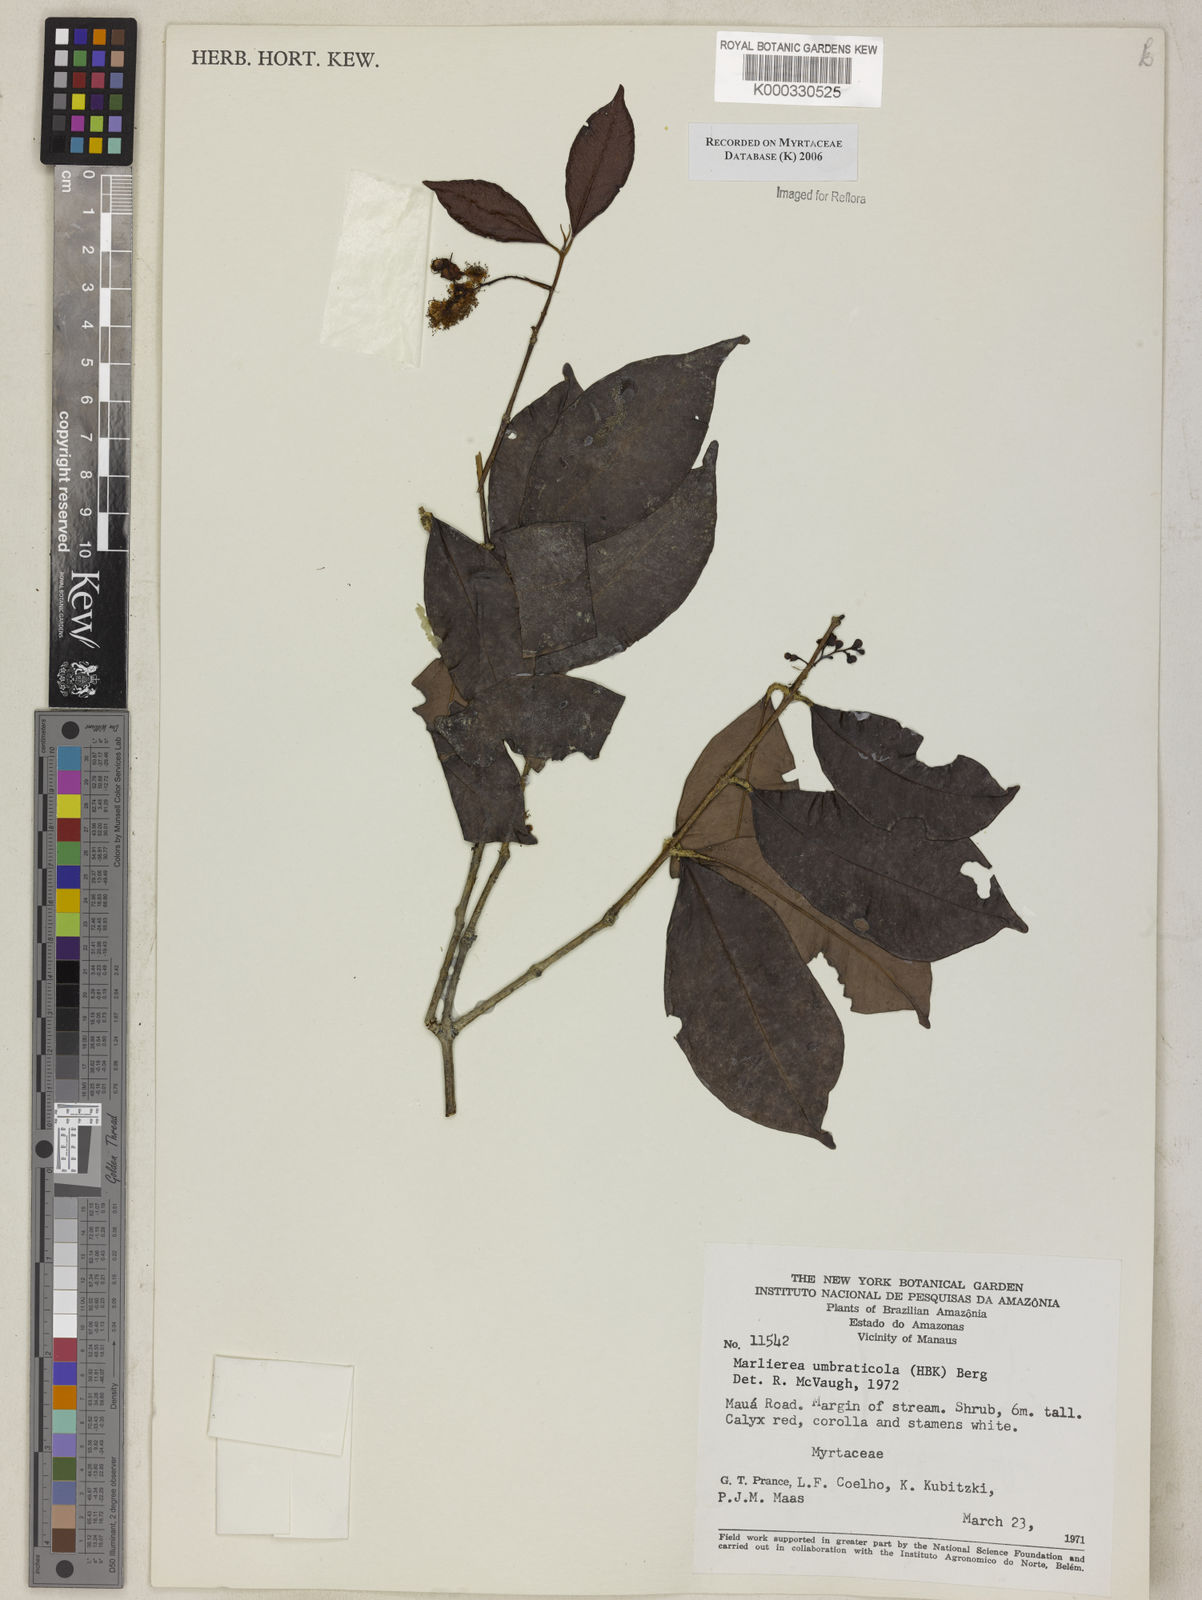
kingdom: Plantae
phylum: Tracheophyta
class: Magnoliopsida
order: Myrtales
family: Myrtaceae
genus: Myrcia
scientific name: Myrcia umbraticola
